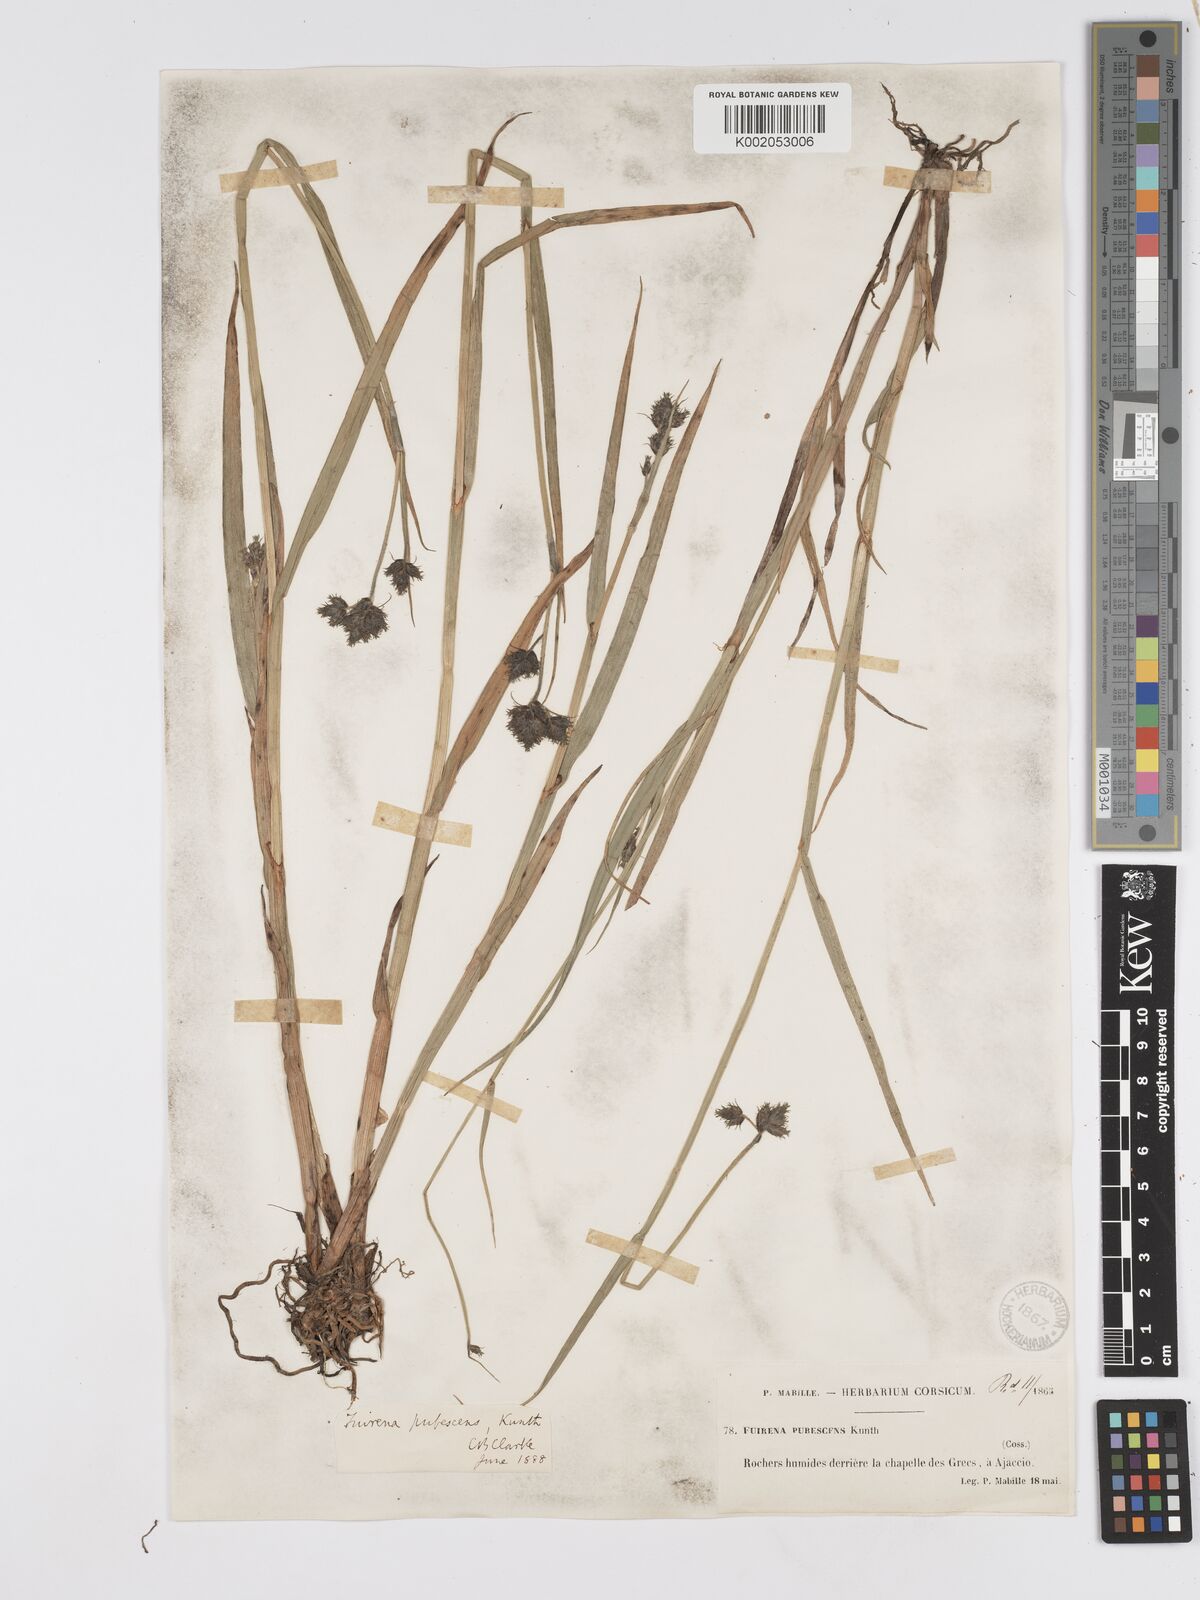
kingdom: Plantae
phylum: Tracheophyta
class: Liliopsida
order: Poales
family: Cyperaceae
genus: Fuirena
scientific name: Fuirena pubescens
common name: Hairy sedge
